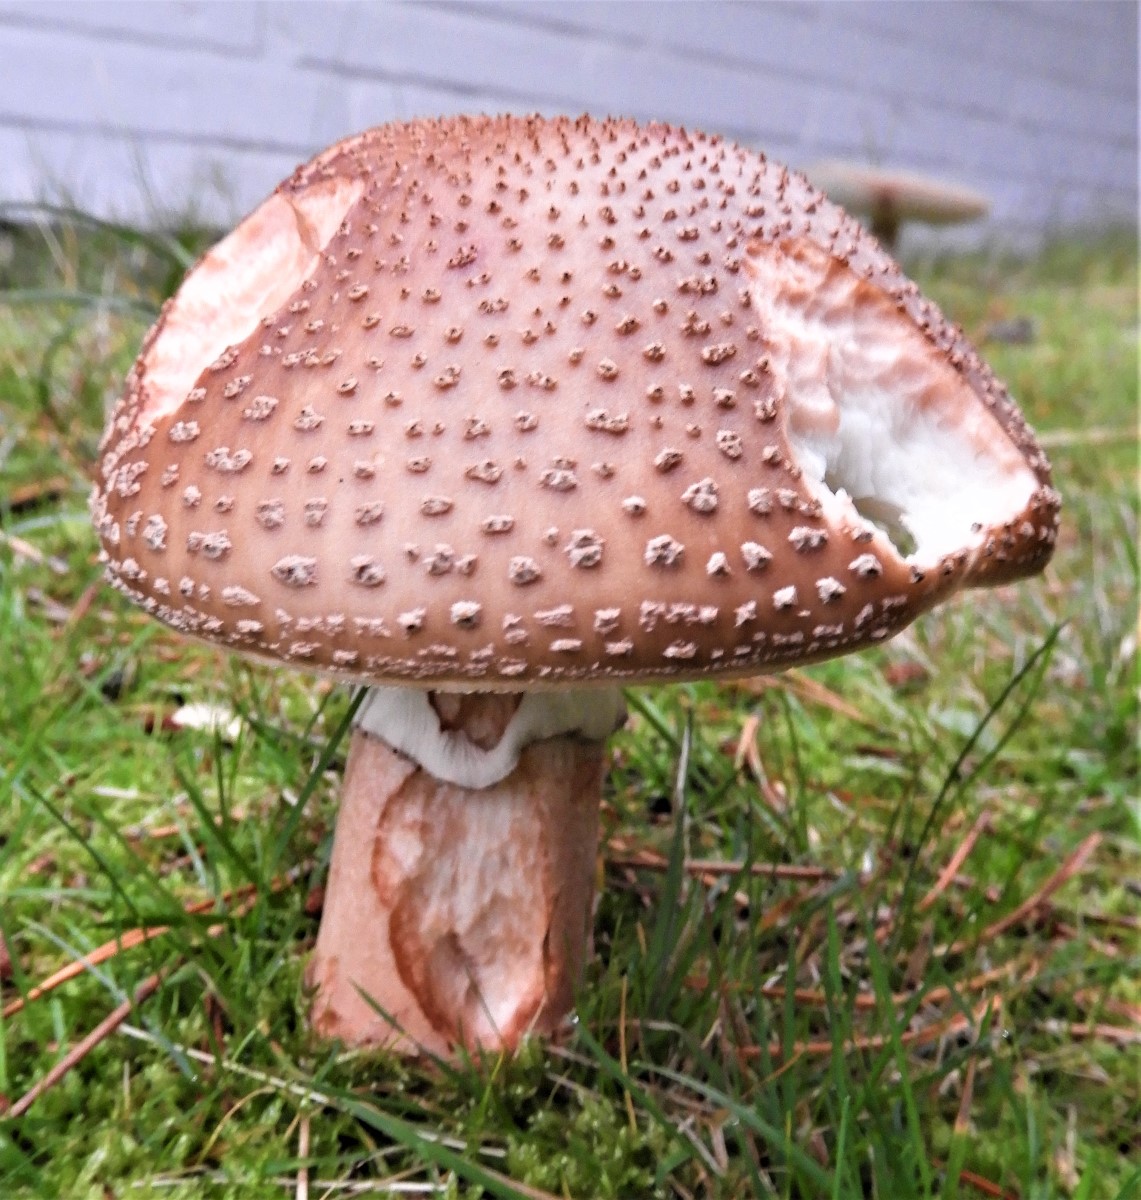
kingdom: Fungi
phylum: Basidiomycota
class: Agaricomycetes
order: Agaricales
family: Amanitaceae
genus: Amanita
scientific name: Amanita rubescens
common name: rødmende fluesvamp
